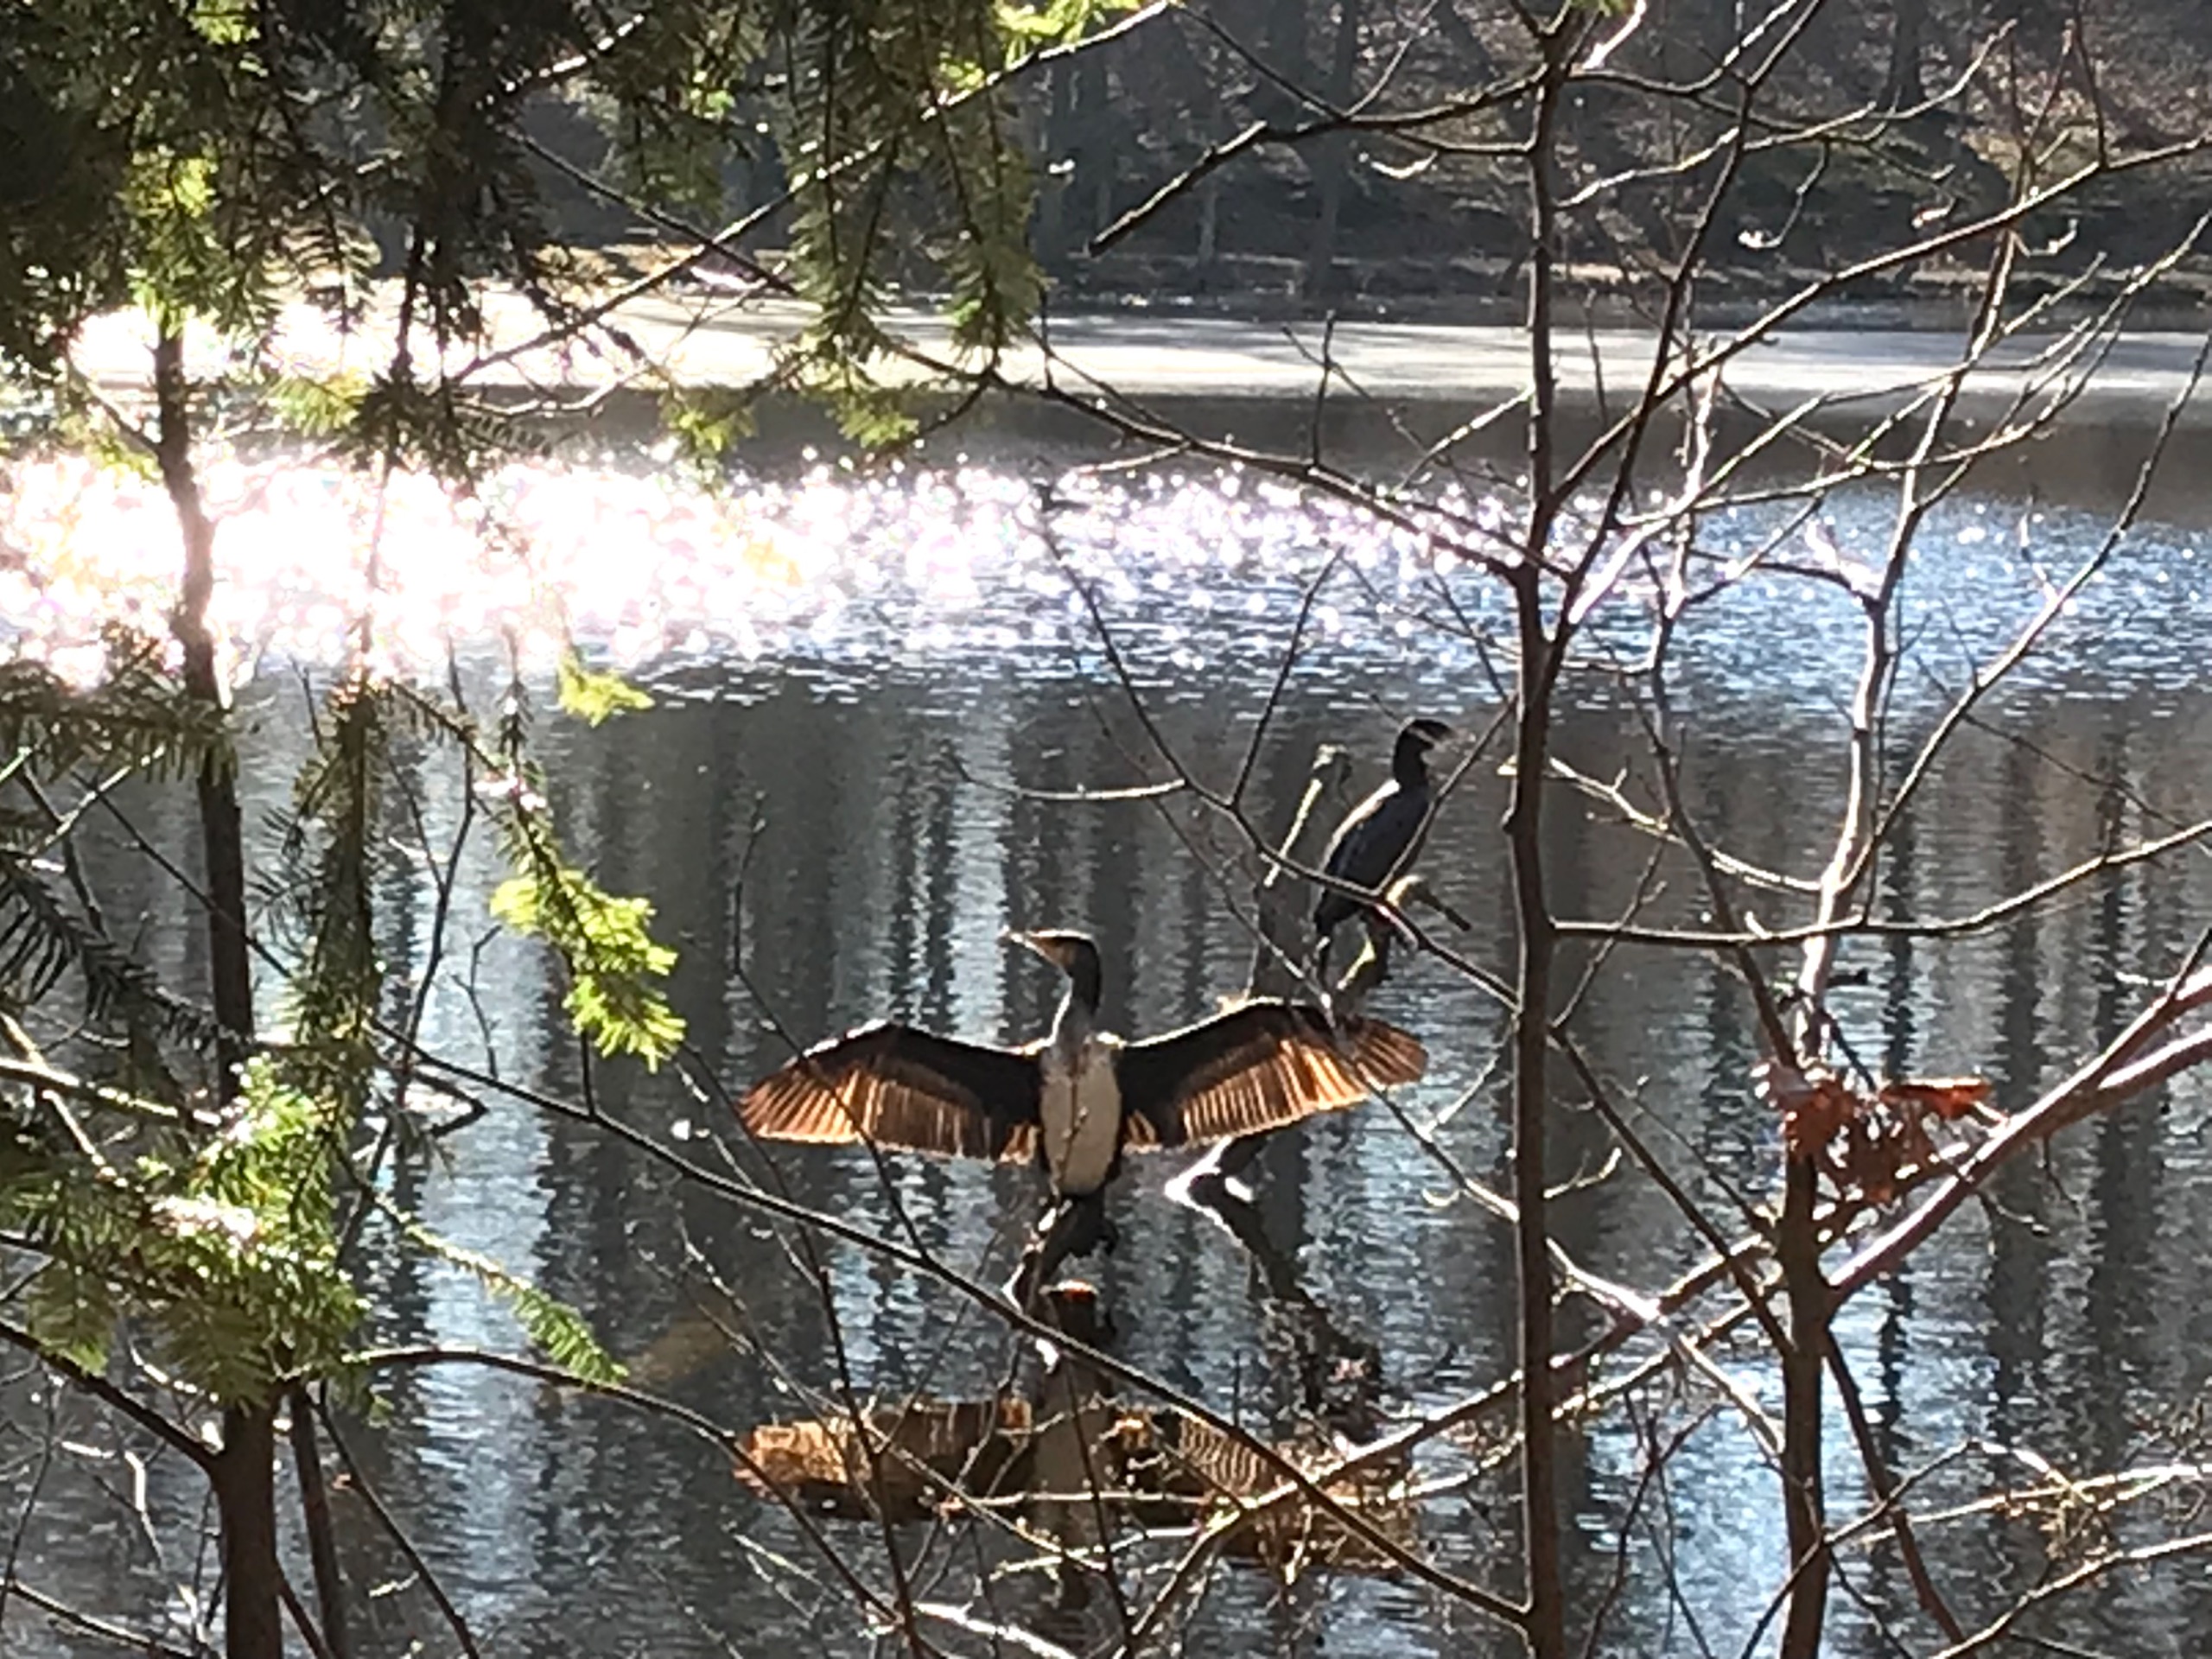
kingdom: Animalia
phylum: Chordata
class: Aves
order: Suliformes
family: Phalacrocoracidae
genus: Phalacrocorax
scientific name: Phalacrocorax carbo
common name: Skarv
